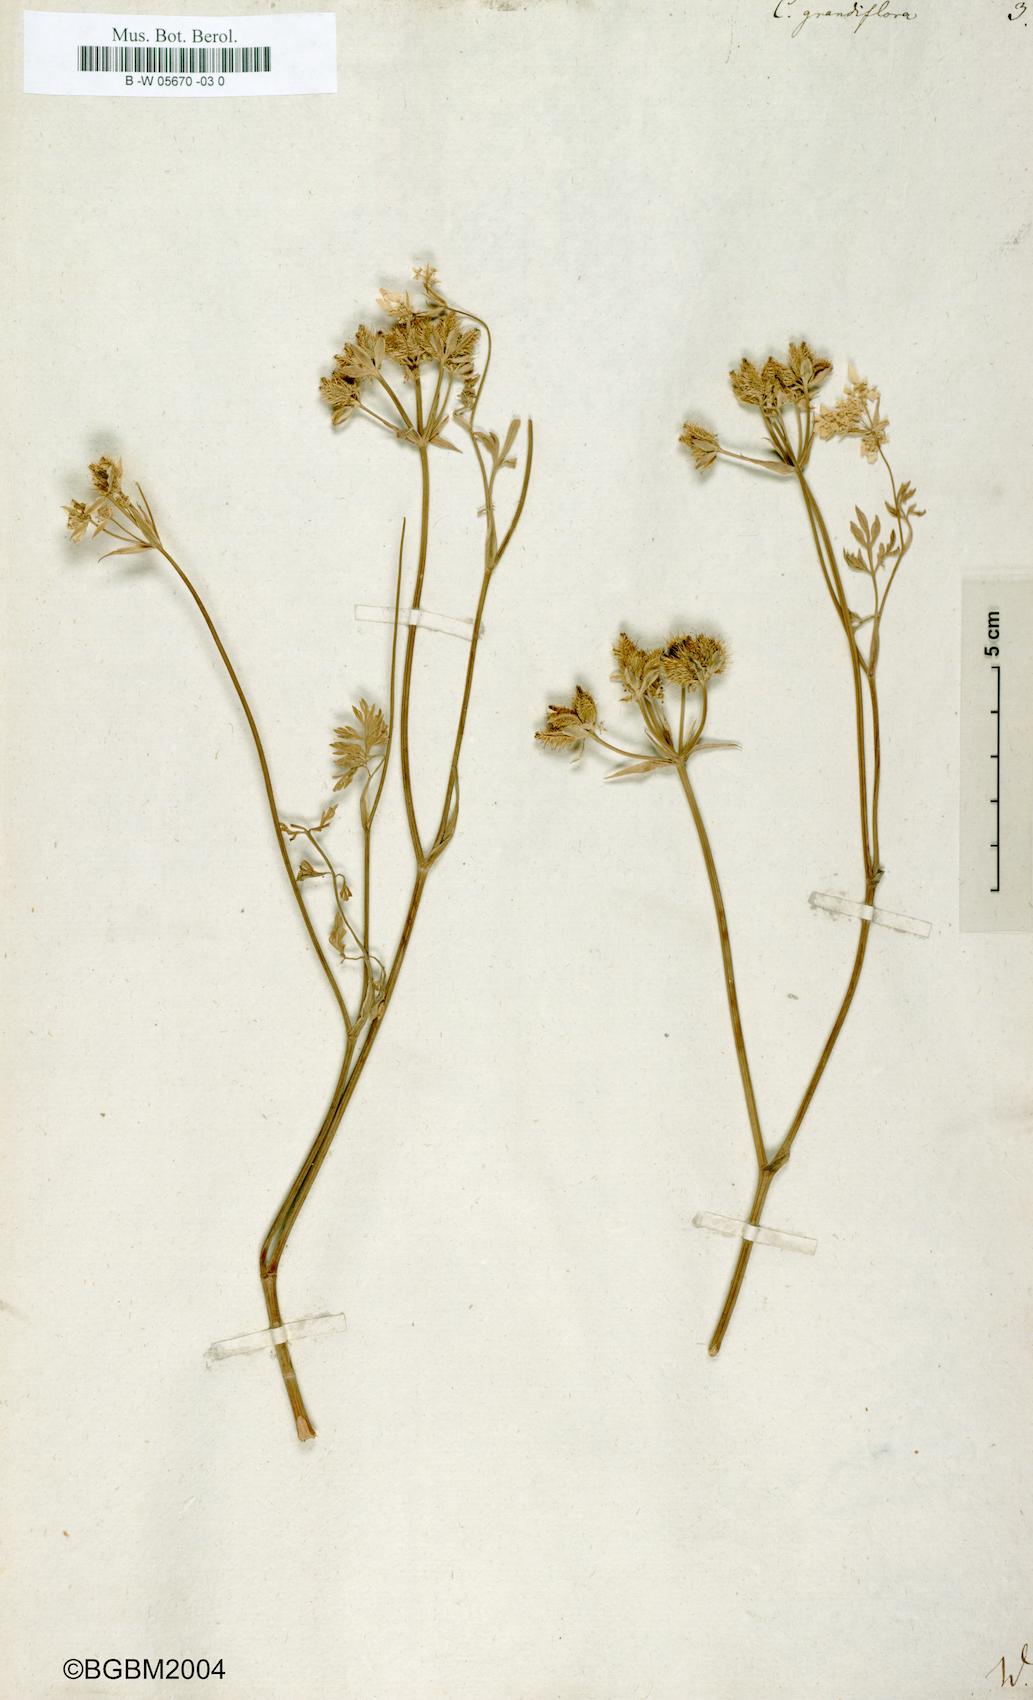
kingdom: Plantae
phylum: Tracheophyta
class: Magnoliopsida
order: Apiales
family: Apiaceae
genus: Caucalis
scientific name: Caucalis grandiflora
